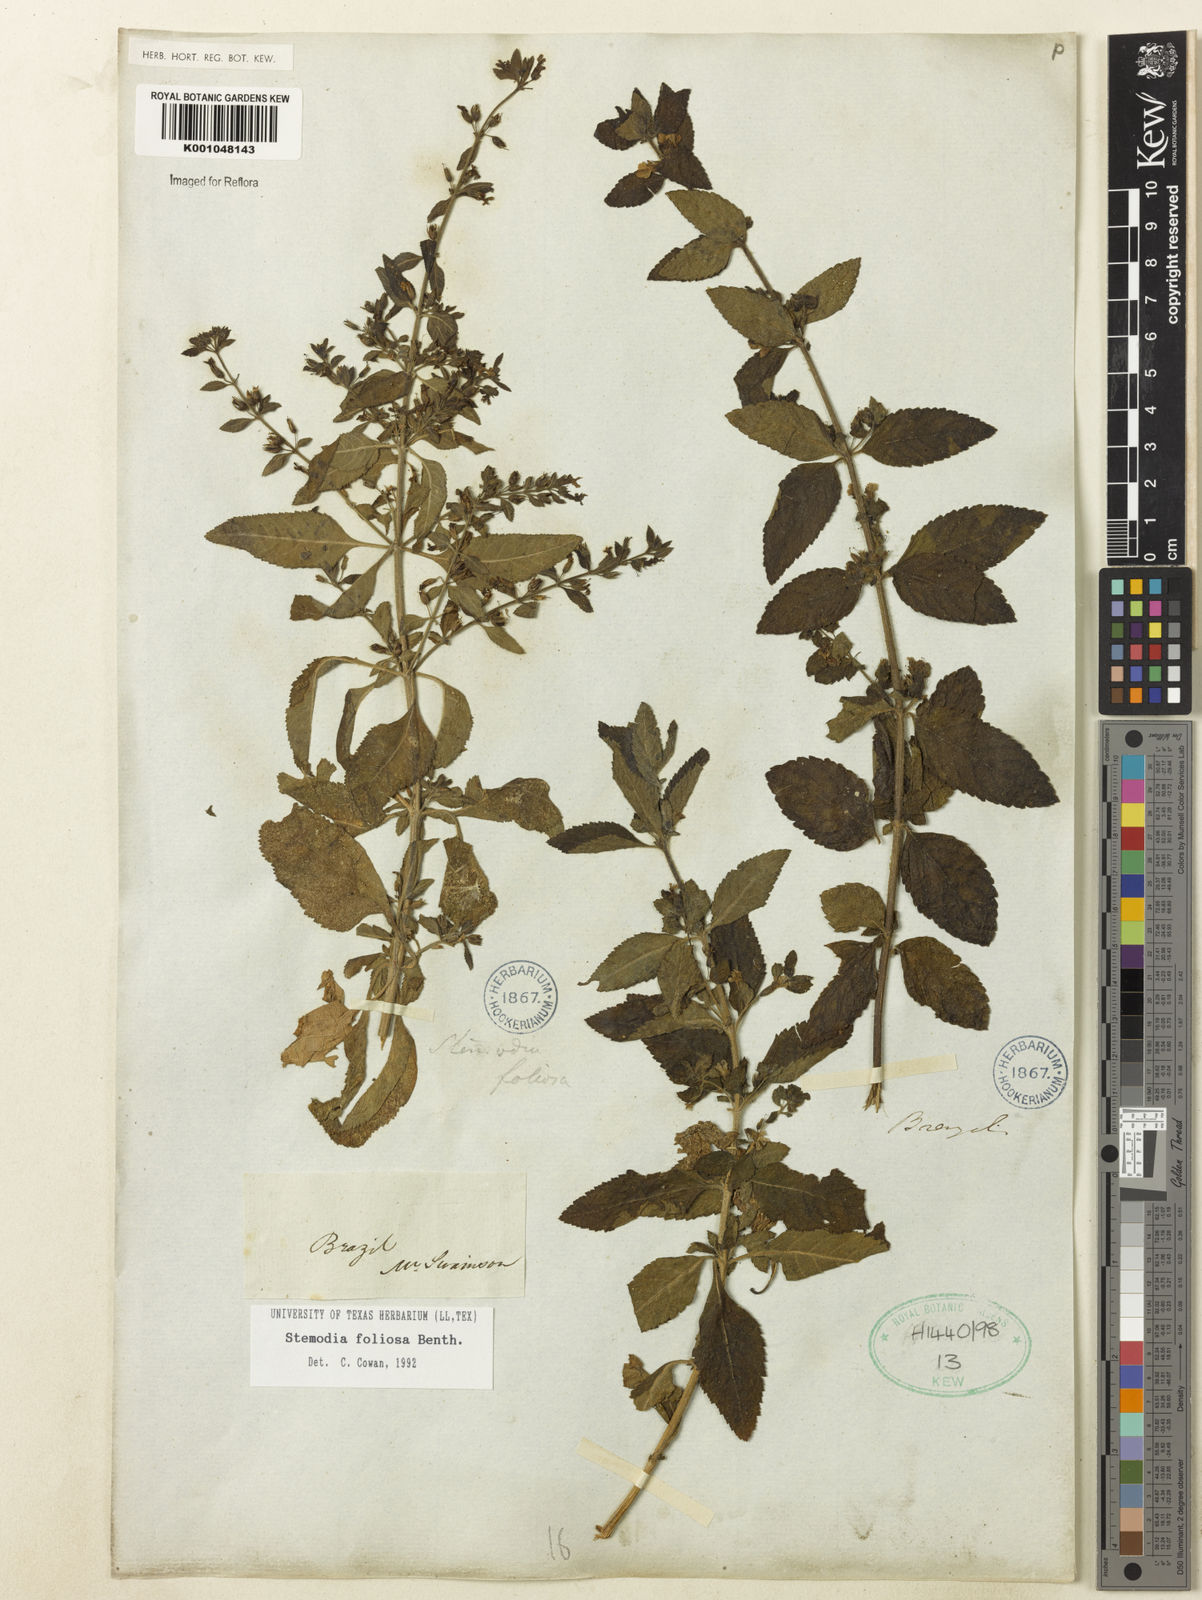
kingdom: Plantae
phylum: Tracheophyta
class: Magnoliopsida
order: Lamiales
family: Plantaginaceae
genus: Stemodia
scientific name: Stemodia foliosa
